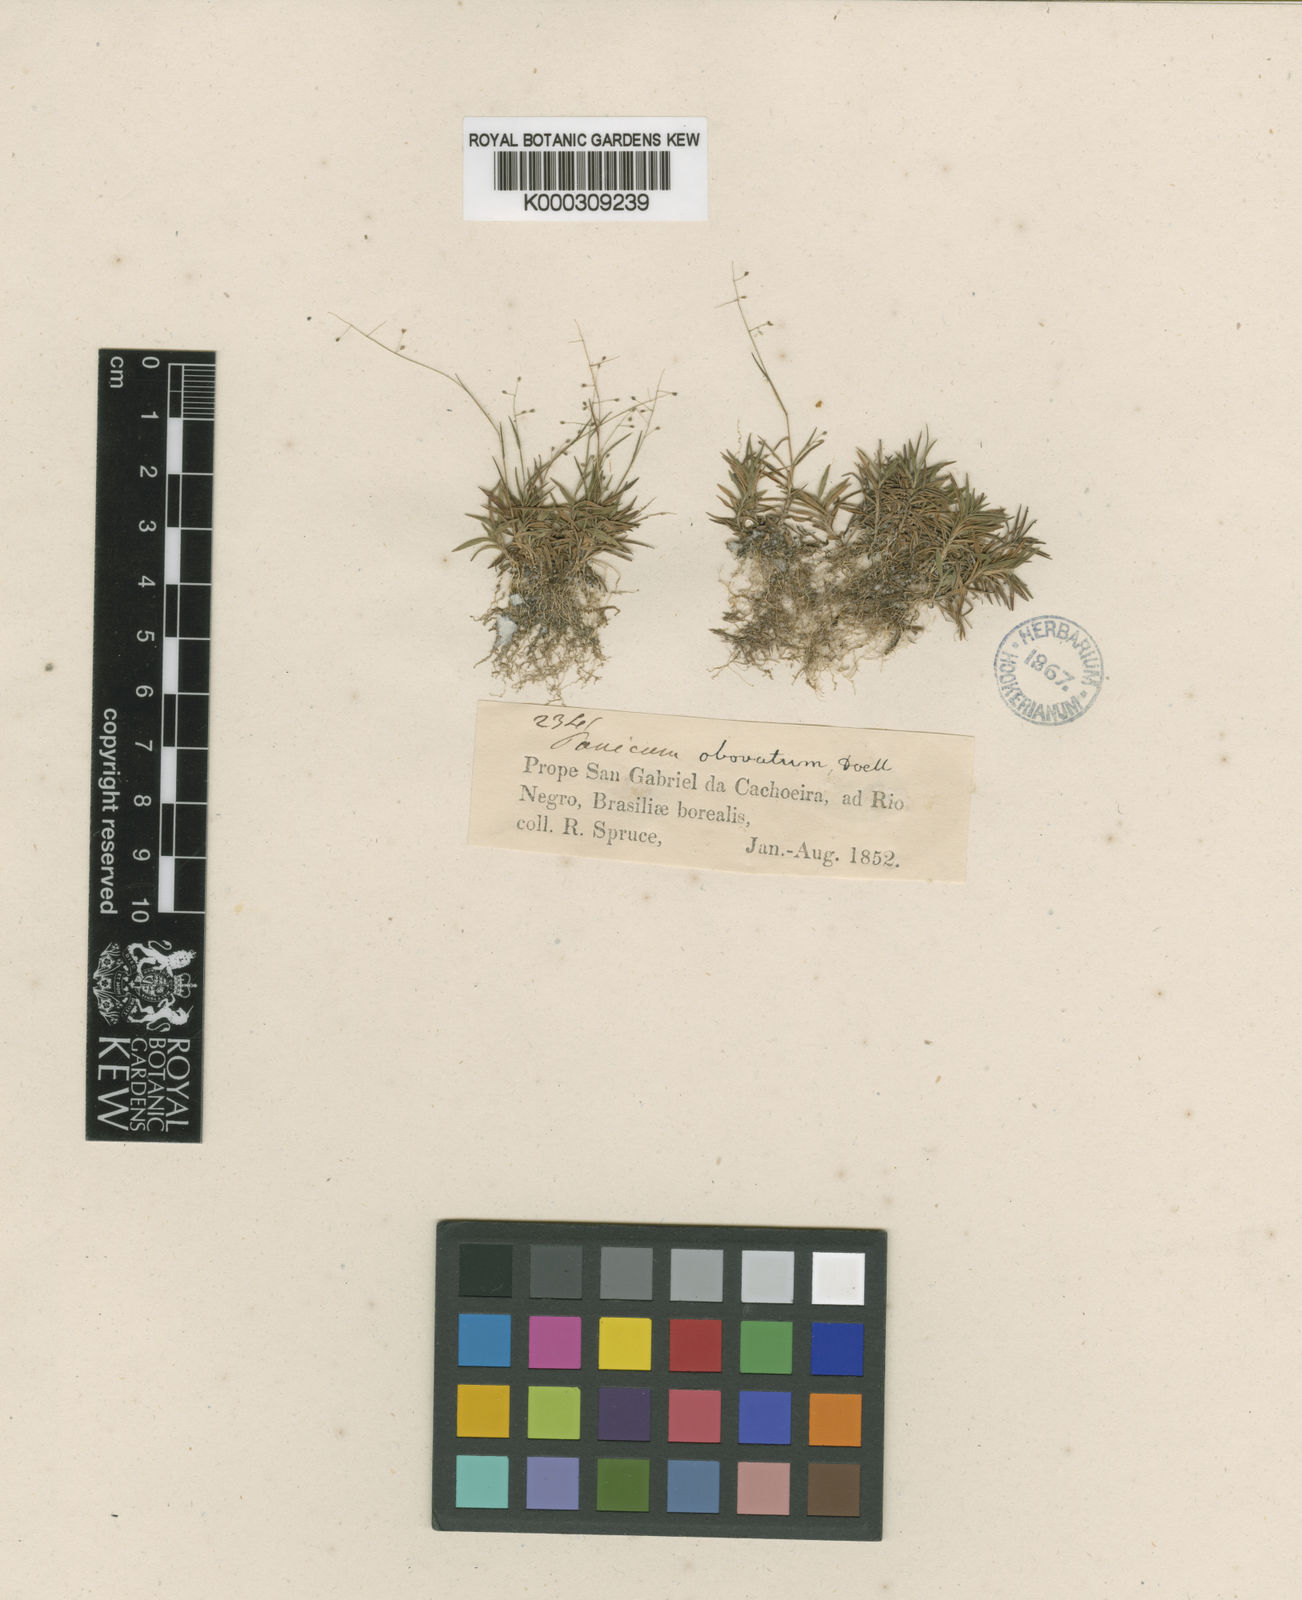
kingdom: Plantae
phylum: Tracheophyta
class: Liliopsida
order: Poales
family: Poaceae
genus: Trichanthecium
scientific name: Trichanthecium polycomum
